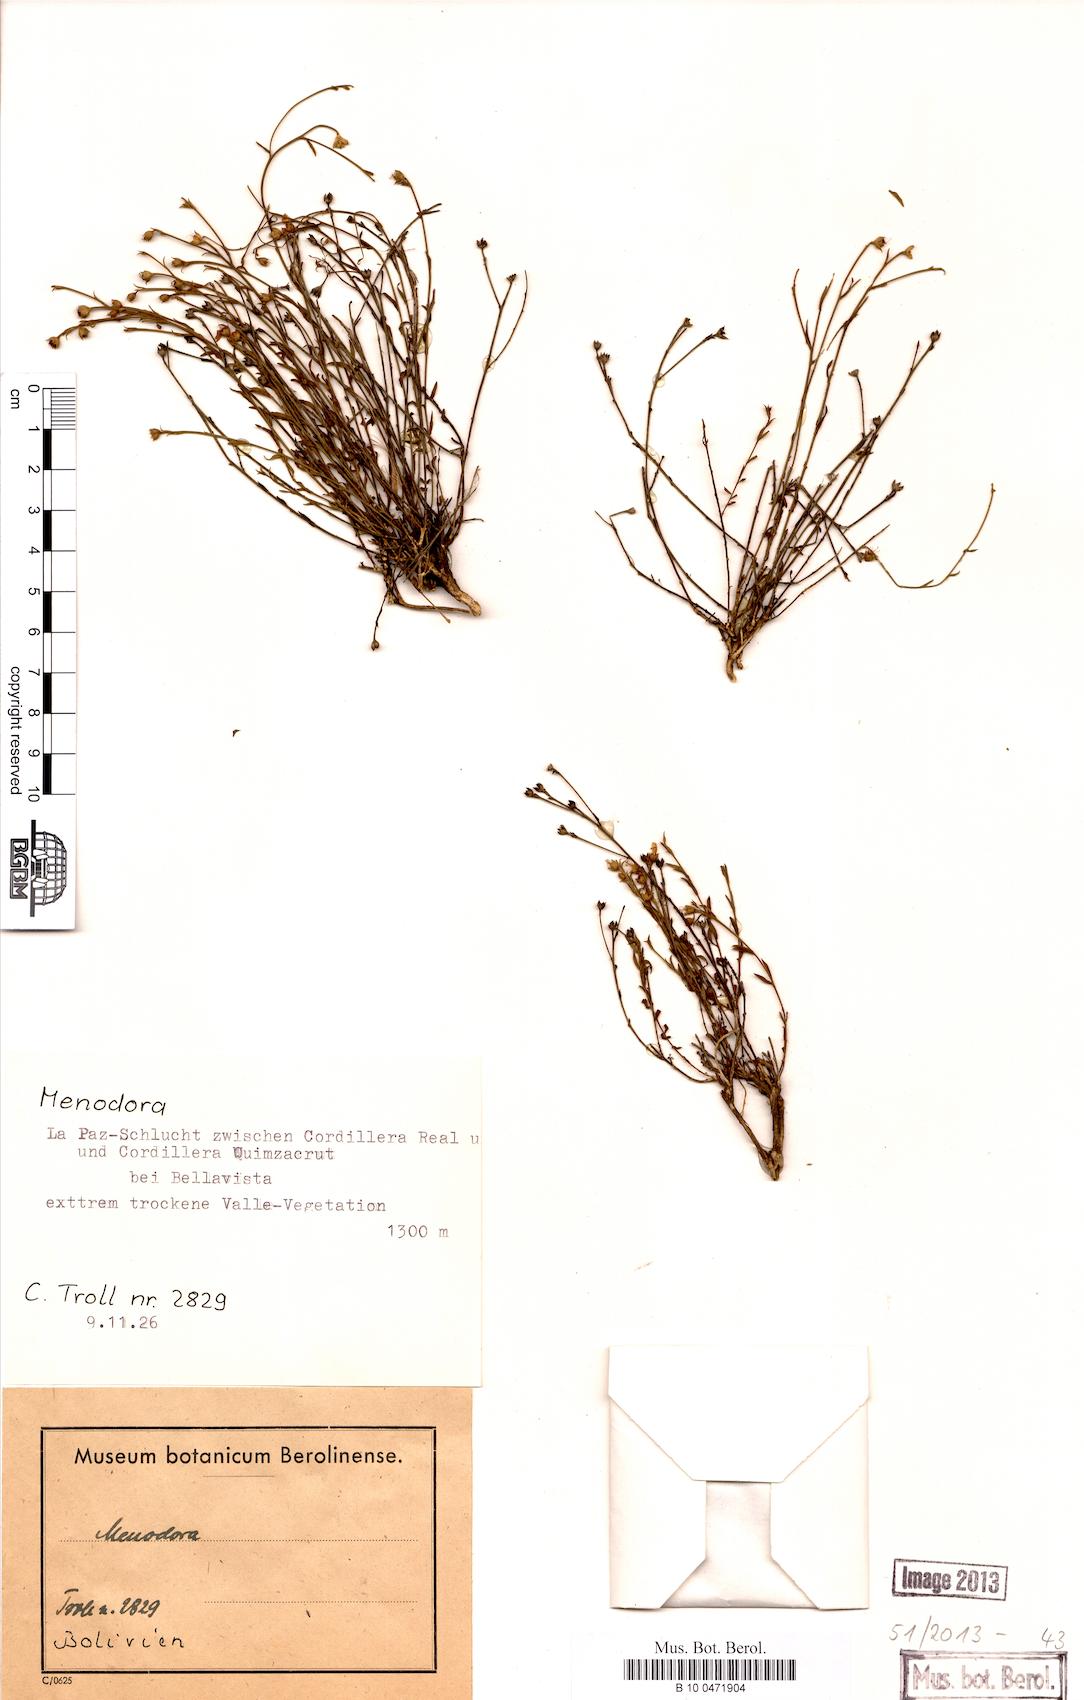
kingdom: Plantae
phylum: Tracheophyta
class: Magnoliopsida
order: Lamiales
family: Oleaceae
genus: Menodora
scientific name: Menodora
